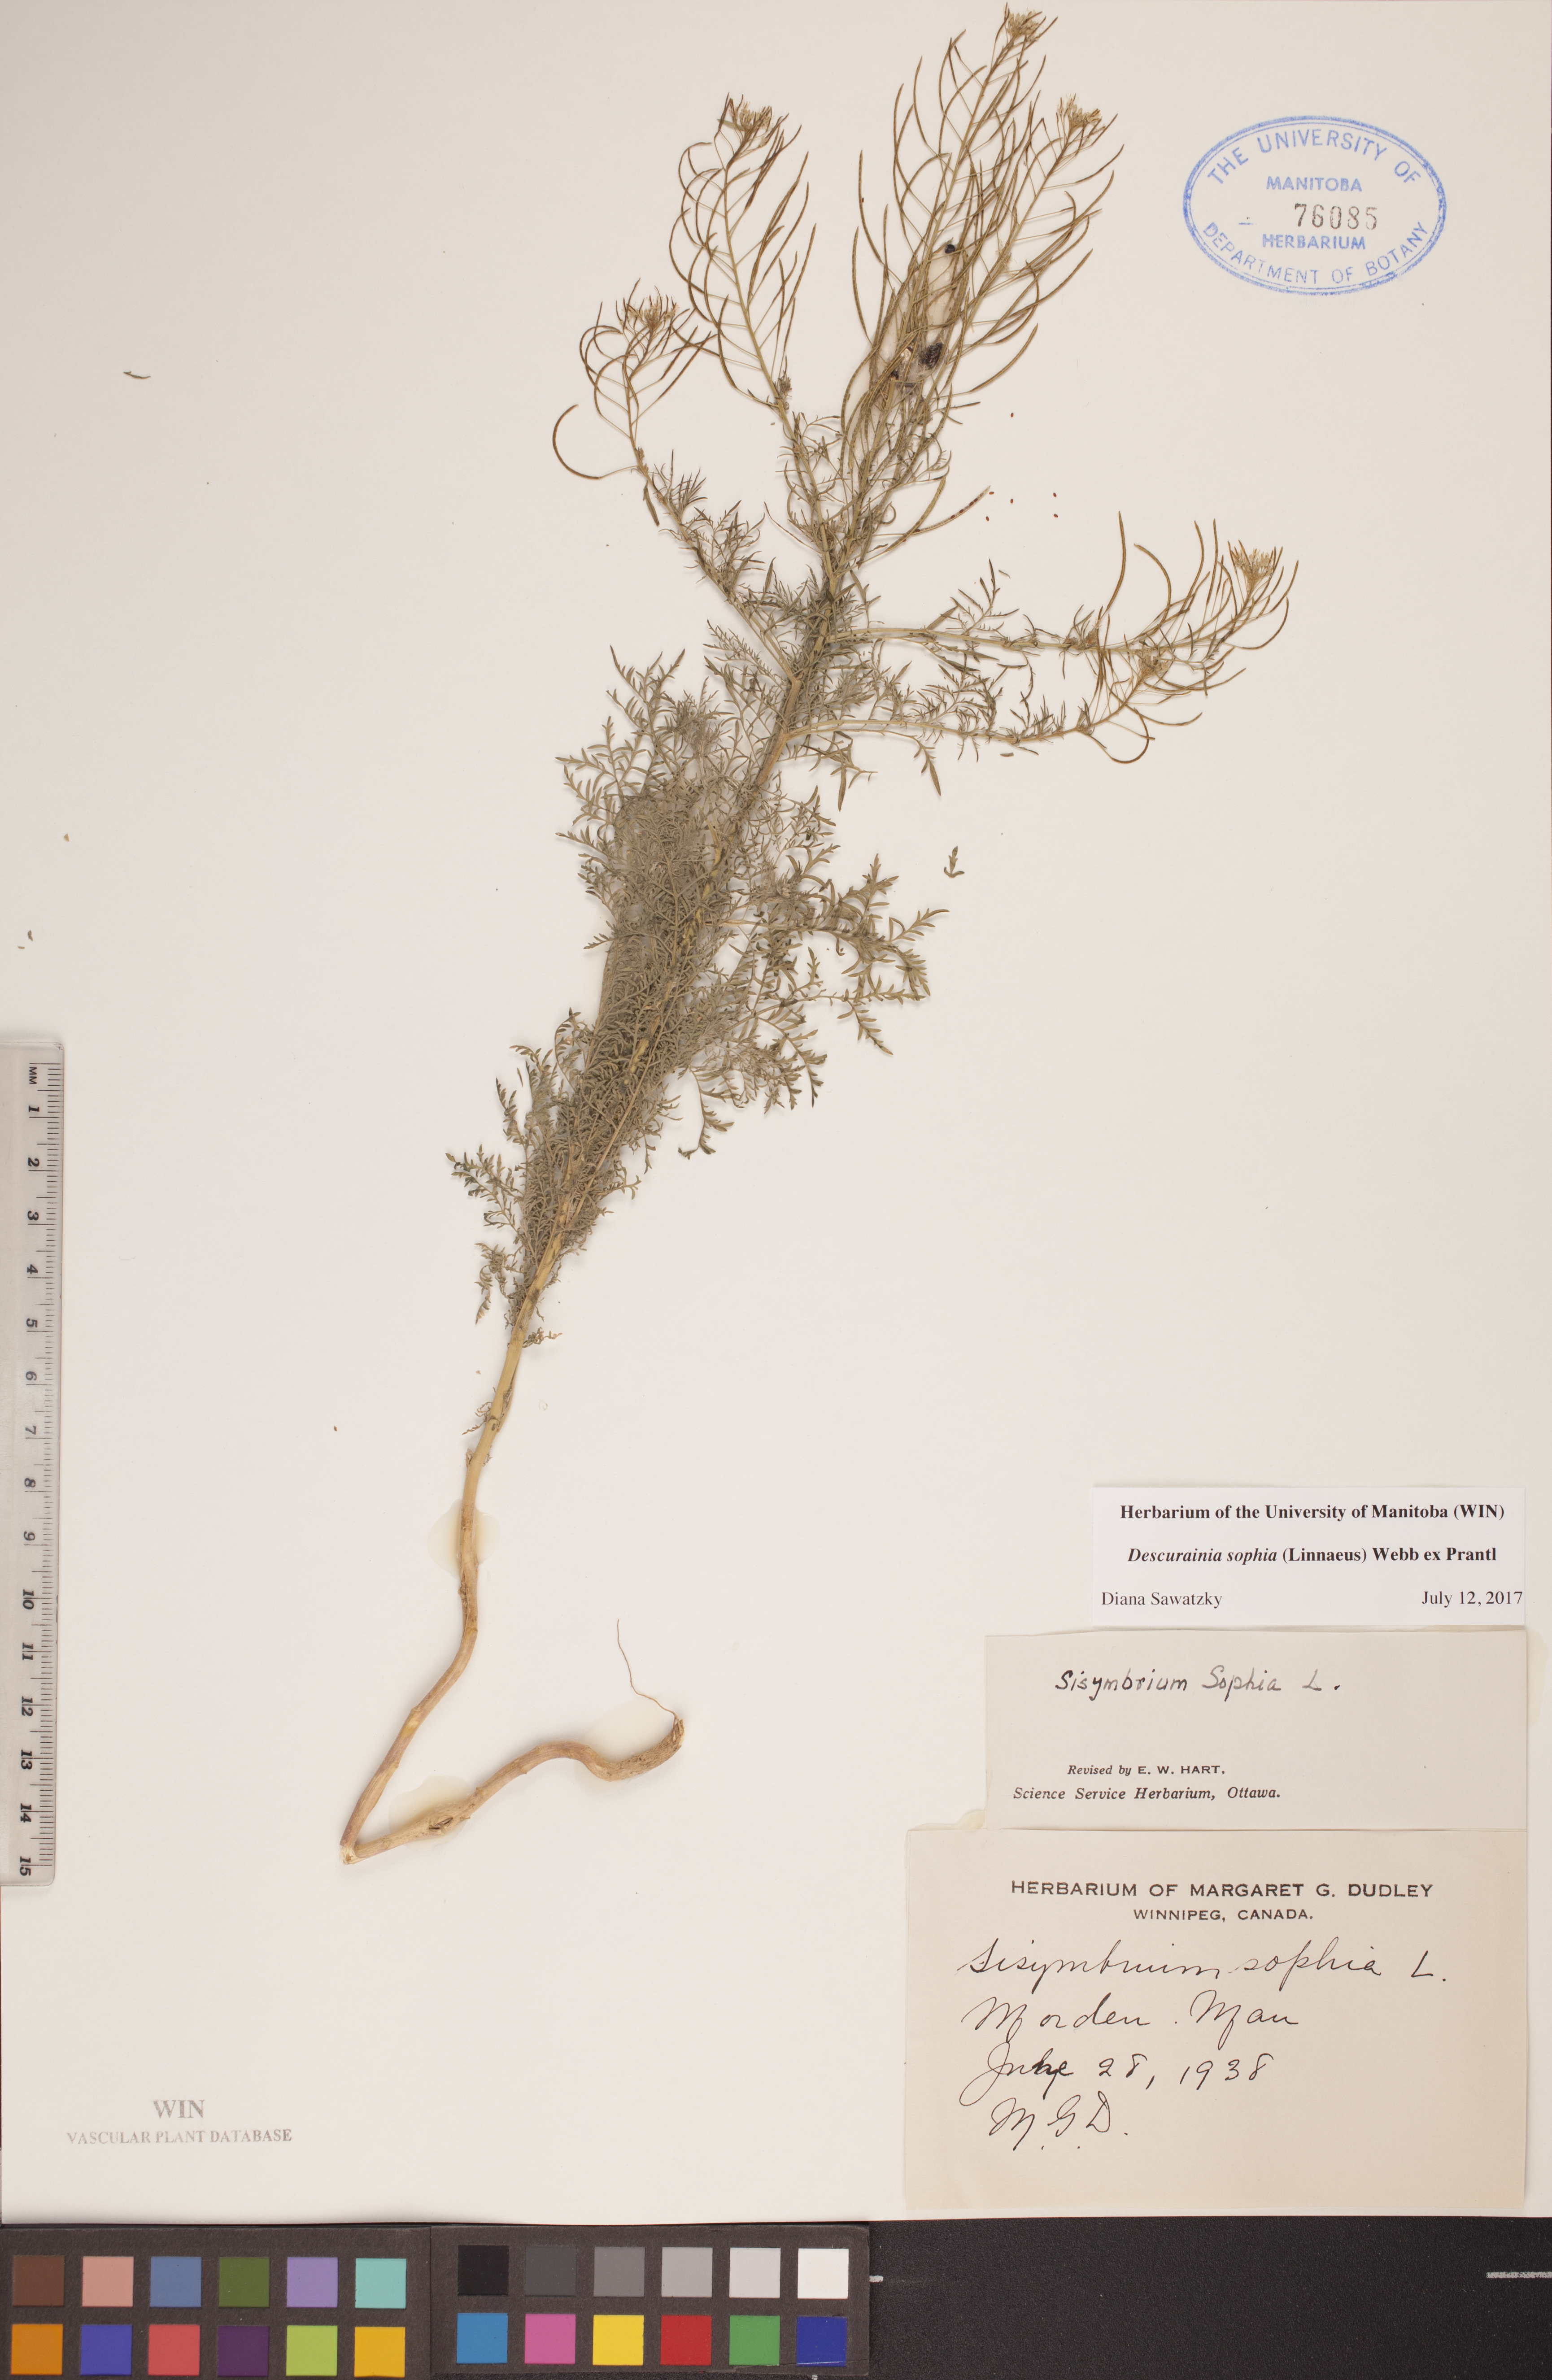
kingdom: Plantae
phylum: Tracheophyta
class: Magnoliopsida
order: Brassicales
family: Brassicaceae
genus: Descurainia
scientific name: Descurainia sophia
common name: Flixweed
